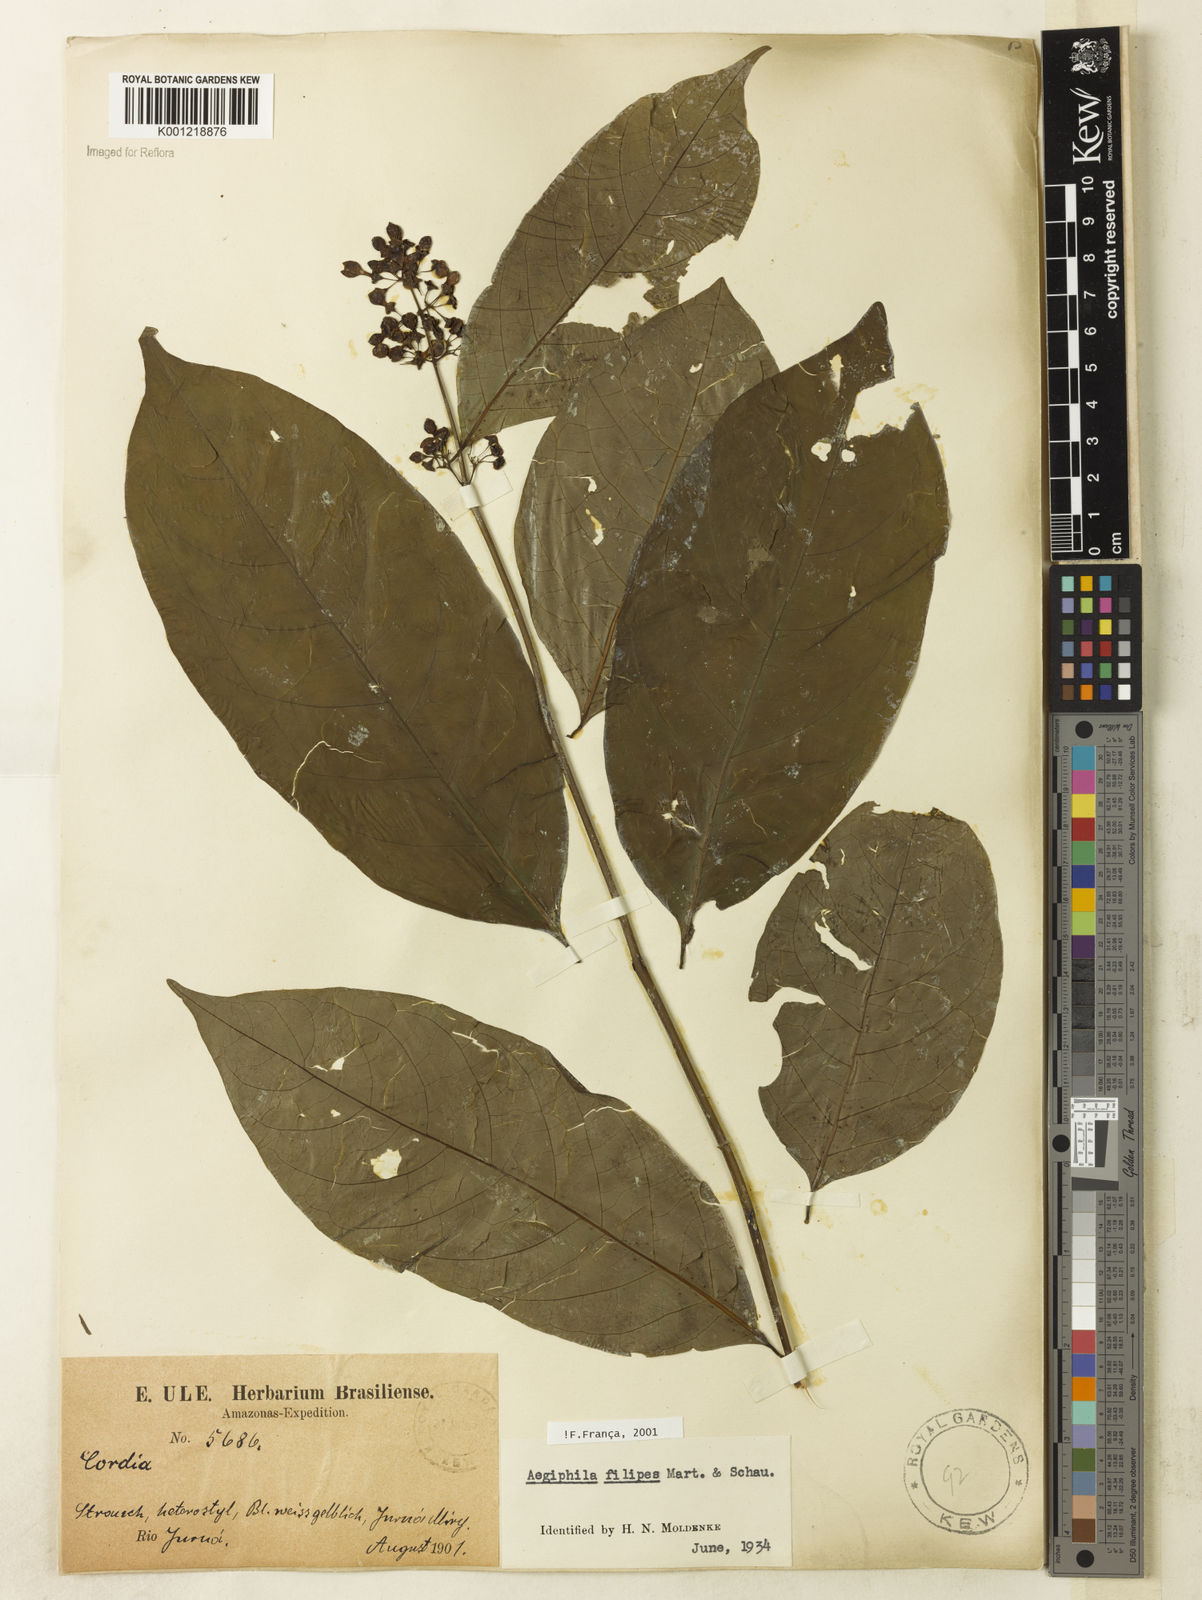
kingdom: Plantae
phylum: Tracheophyta
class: Magnoliopsida
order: Lamiales
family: Lamiaceae
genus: Aegiphila
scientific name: Aegiphila filipes
